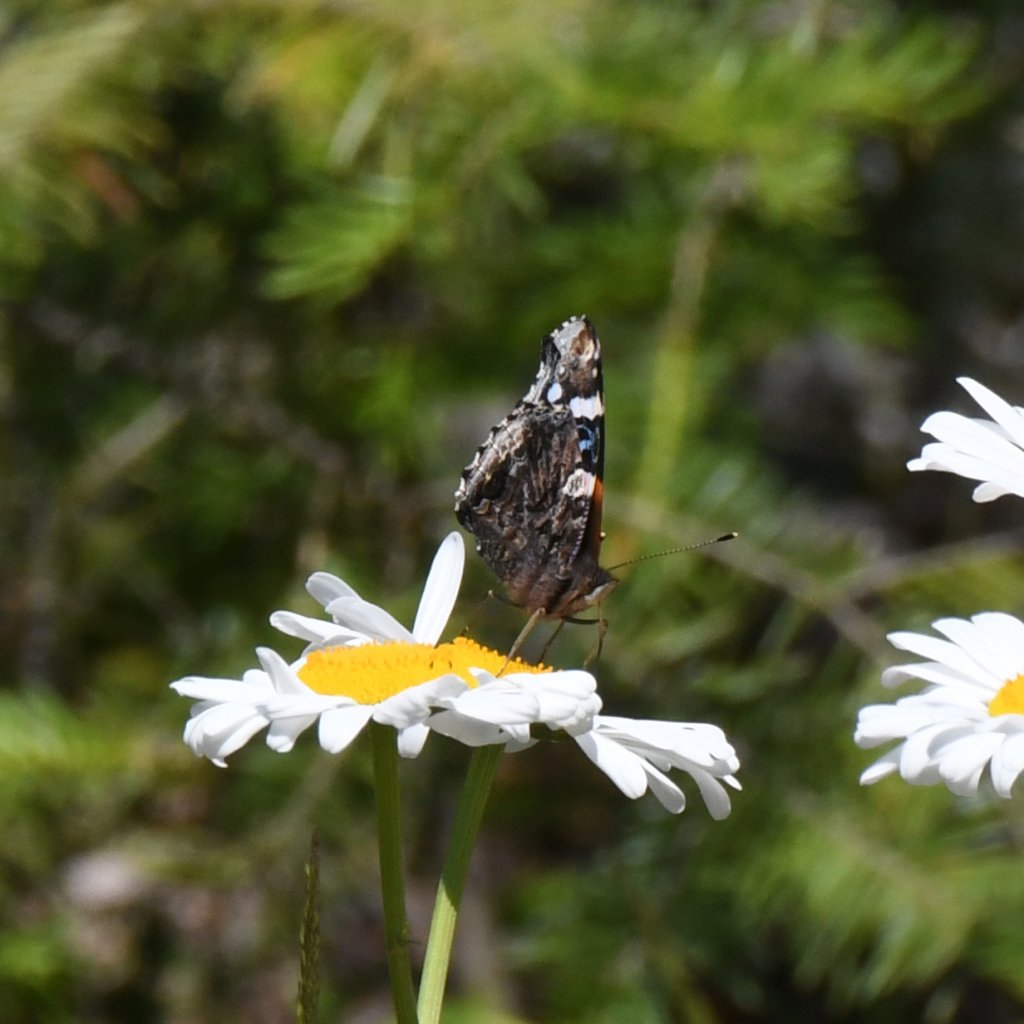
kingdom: Animalia
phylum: Arthropoda
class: Insecta
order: Lepidoptera
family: Nymphalidae
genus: Vanessa
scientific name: Vanessa atalanta
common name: Red Admiral
